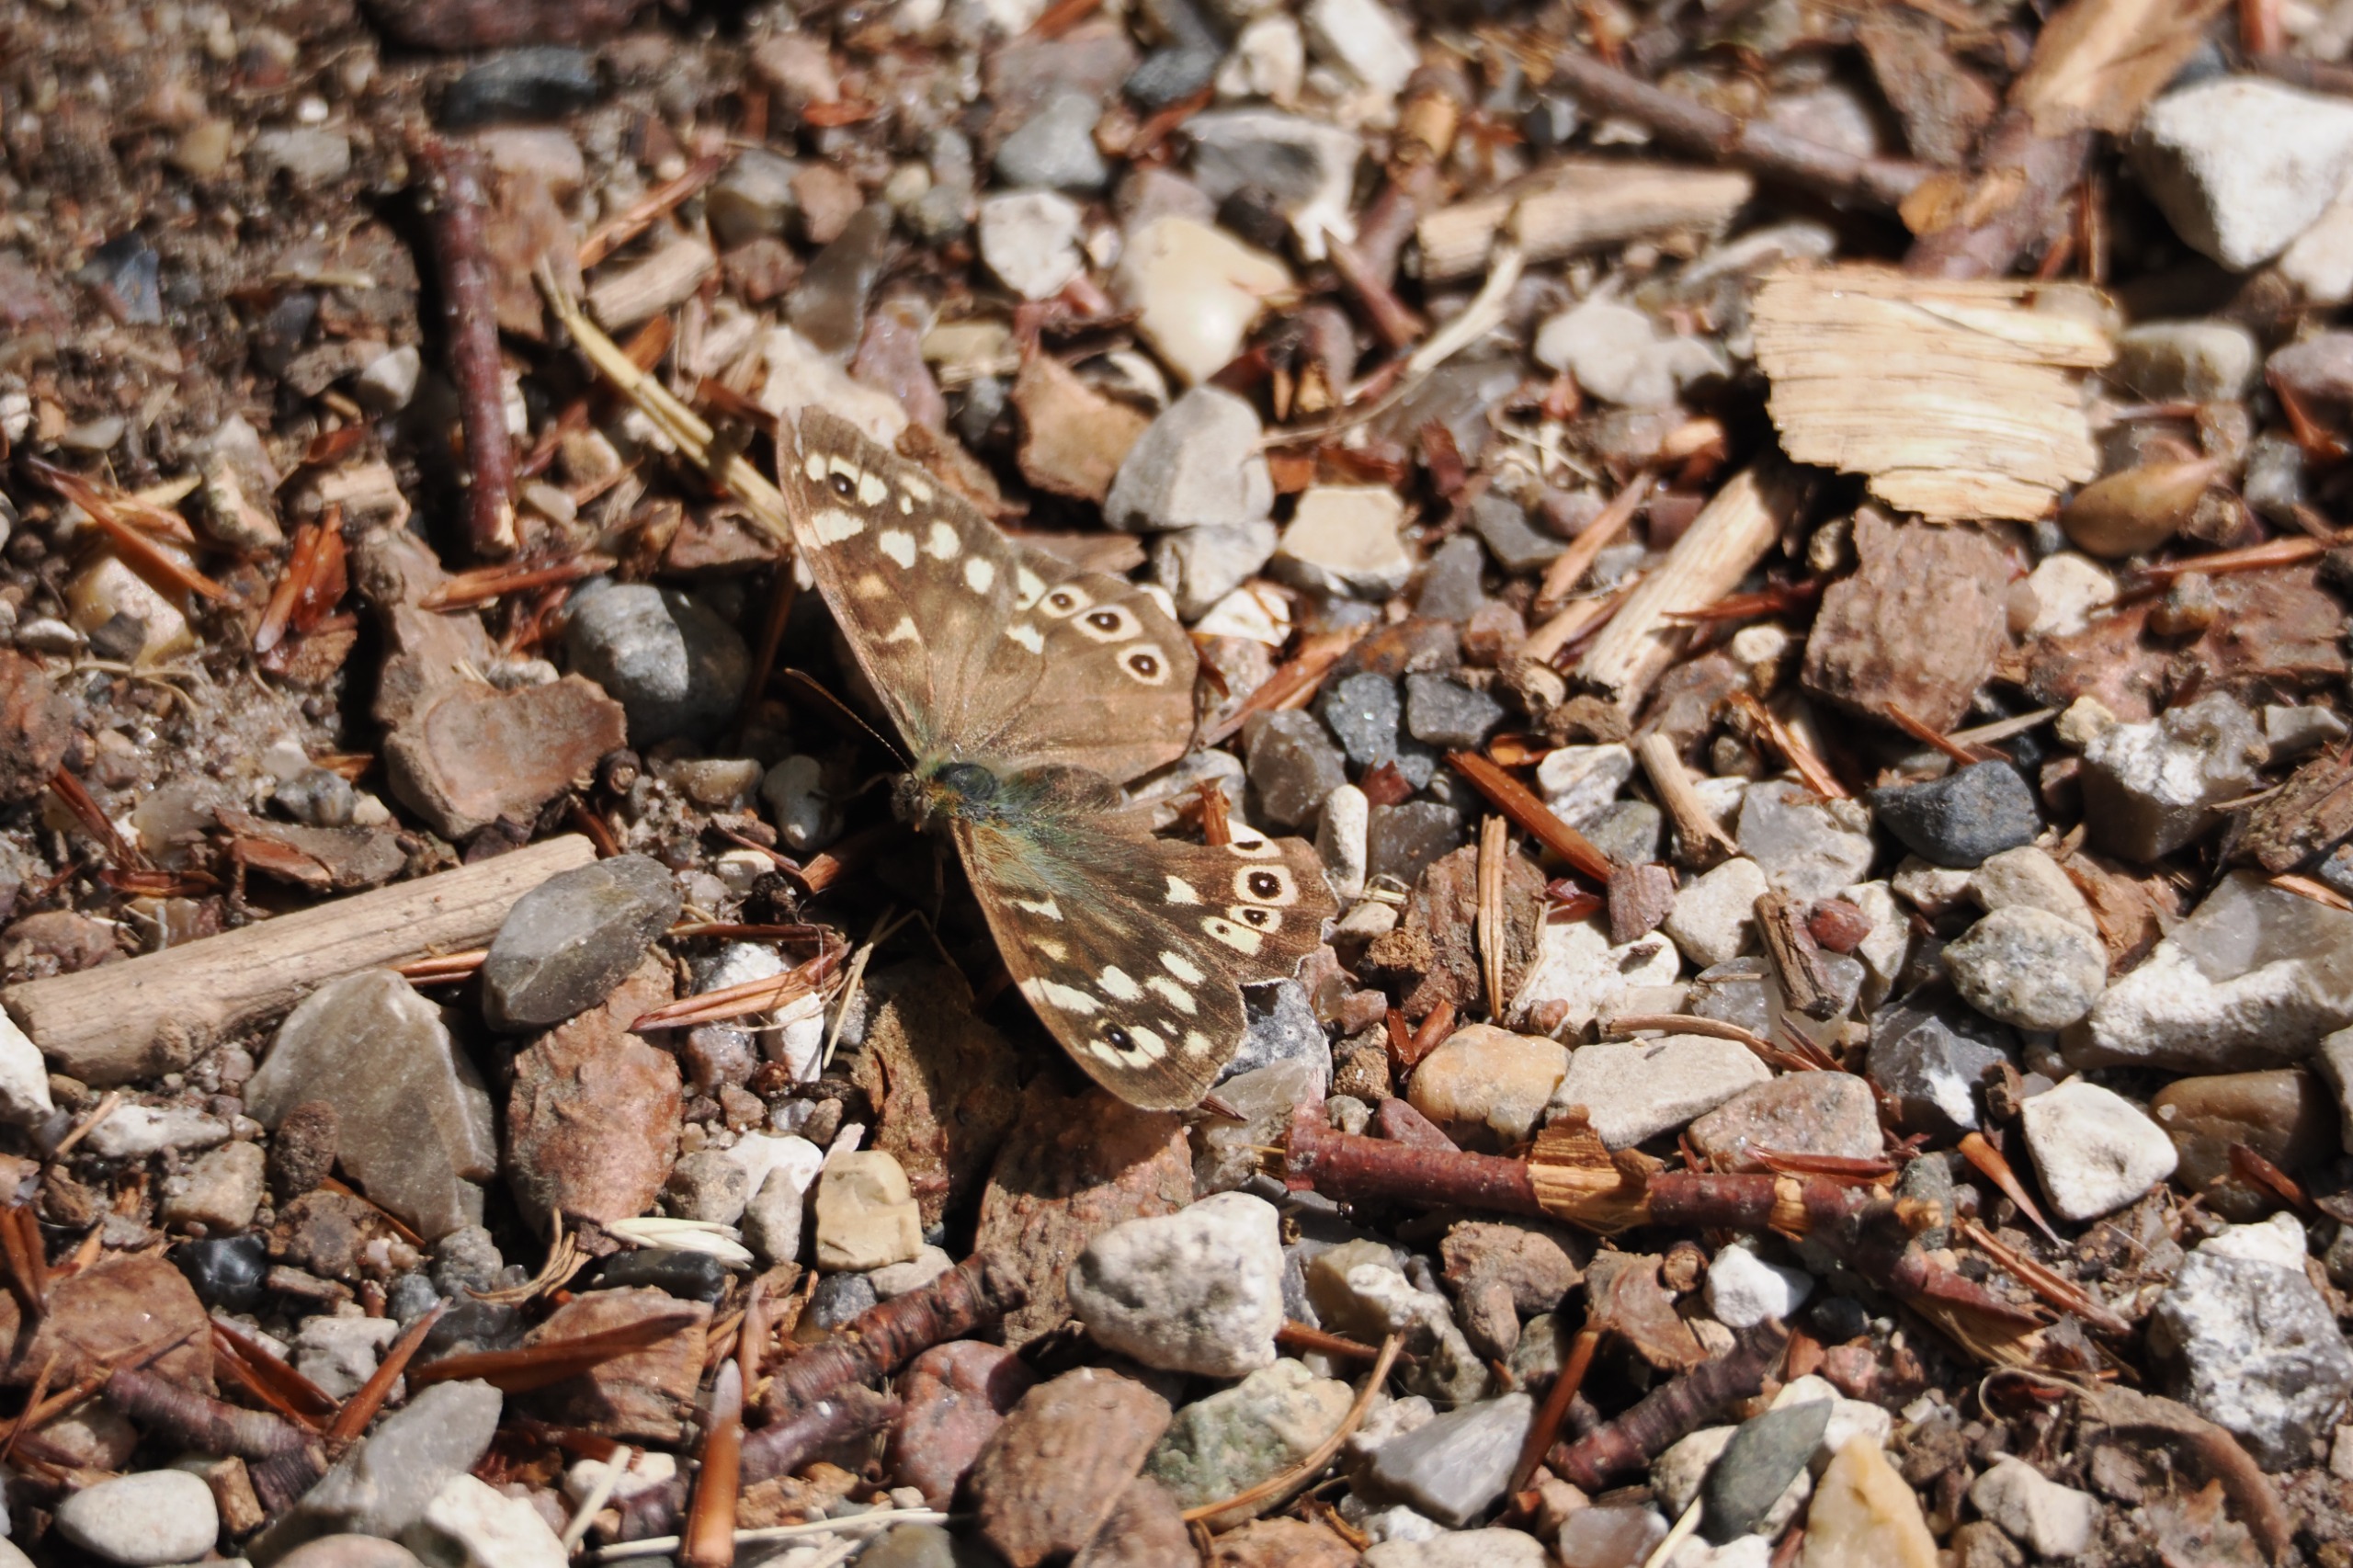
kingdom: Animalia
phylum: Arthropoda
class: Insecta
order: Lepidoptera
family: Nymphalidae
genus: Pararge
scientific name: Pararge aegeria
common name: Skovrandøje
